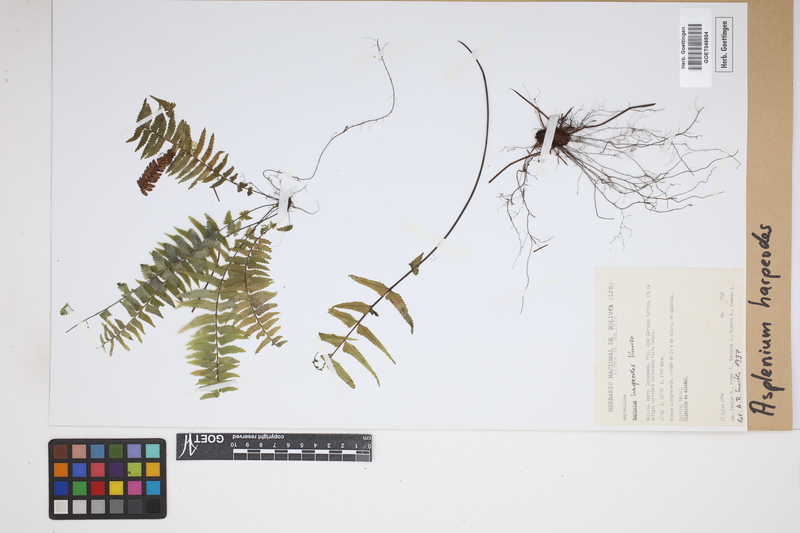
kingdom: Plantae
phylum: Tracheophyta
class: Polypodiopsida
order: Polypodiales
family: Aspleniaceae
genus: Asplenium
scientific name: Asplenium harpeodes
